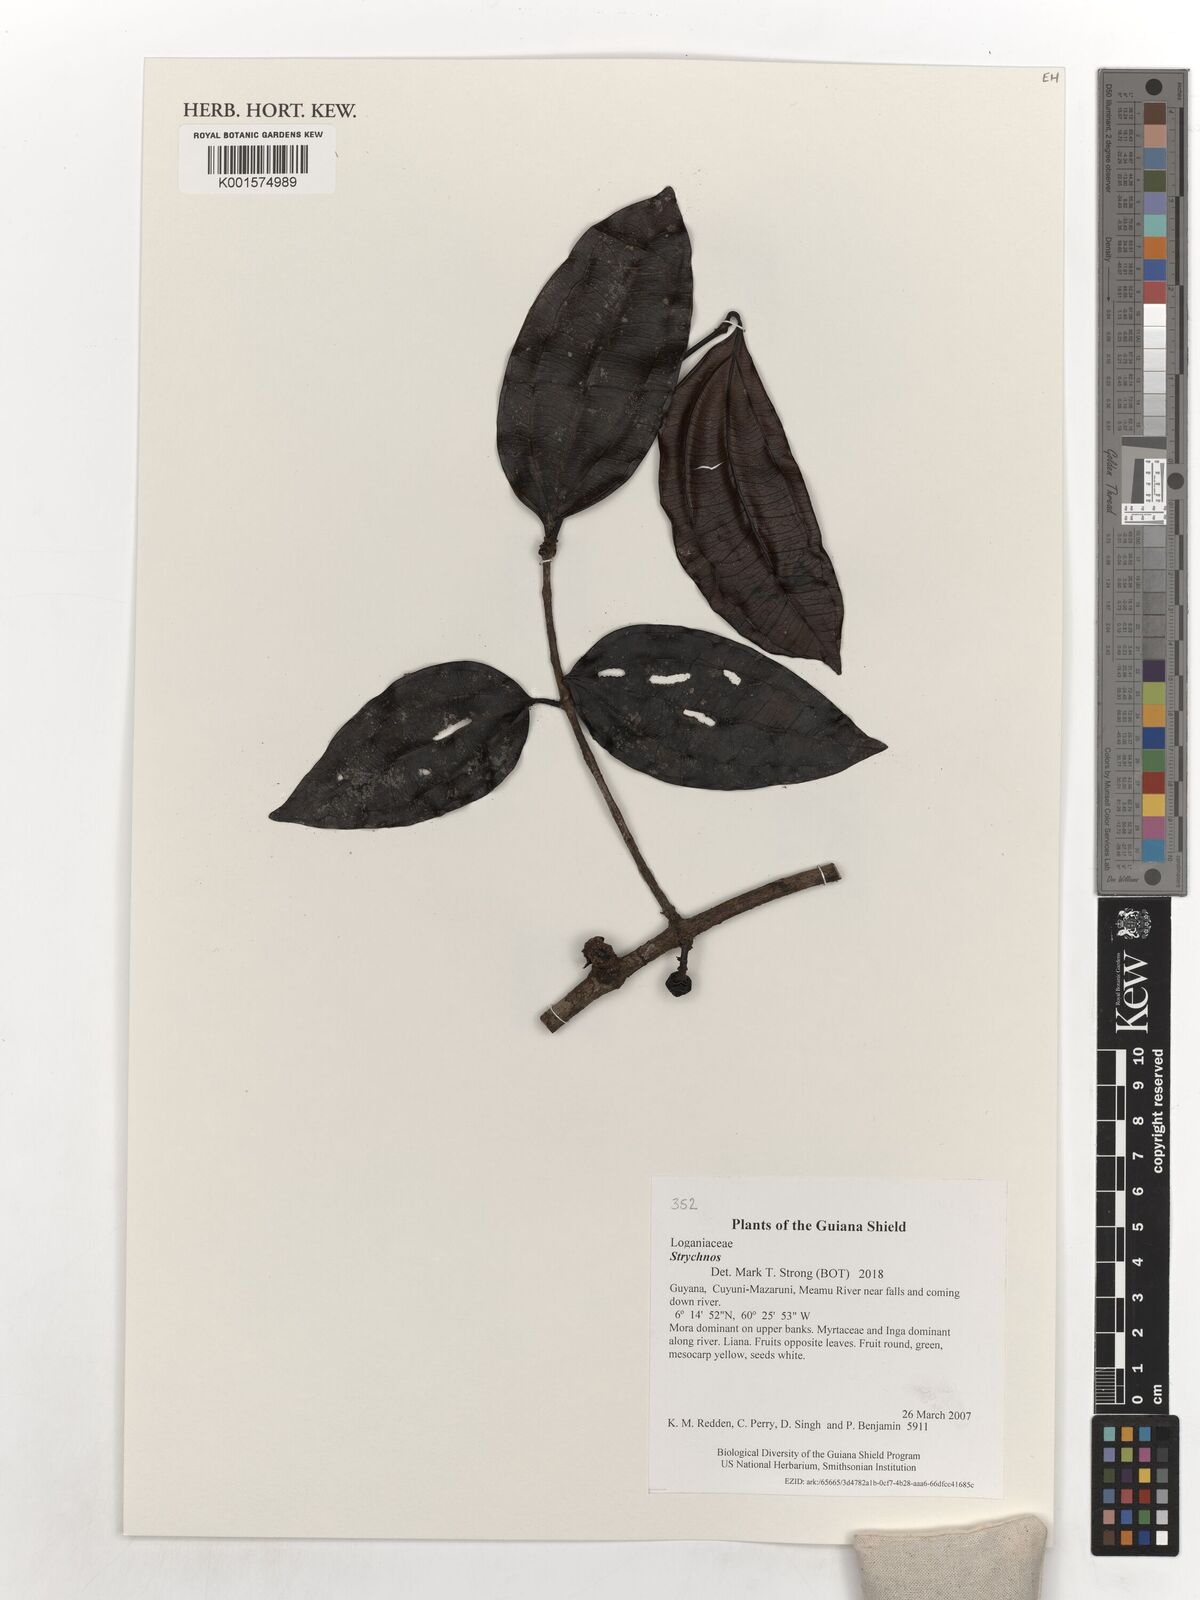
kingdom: Plantae
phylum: Tracheophyta
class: Magnoliopsida
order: Gentianales
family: Loganiaceae
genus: Strychnos
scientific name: Strychnos
